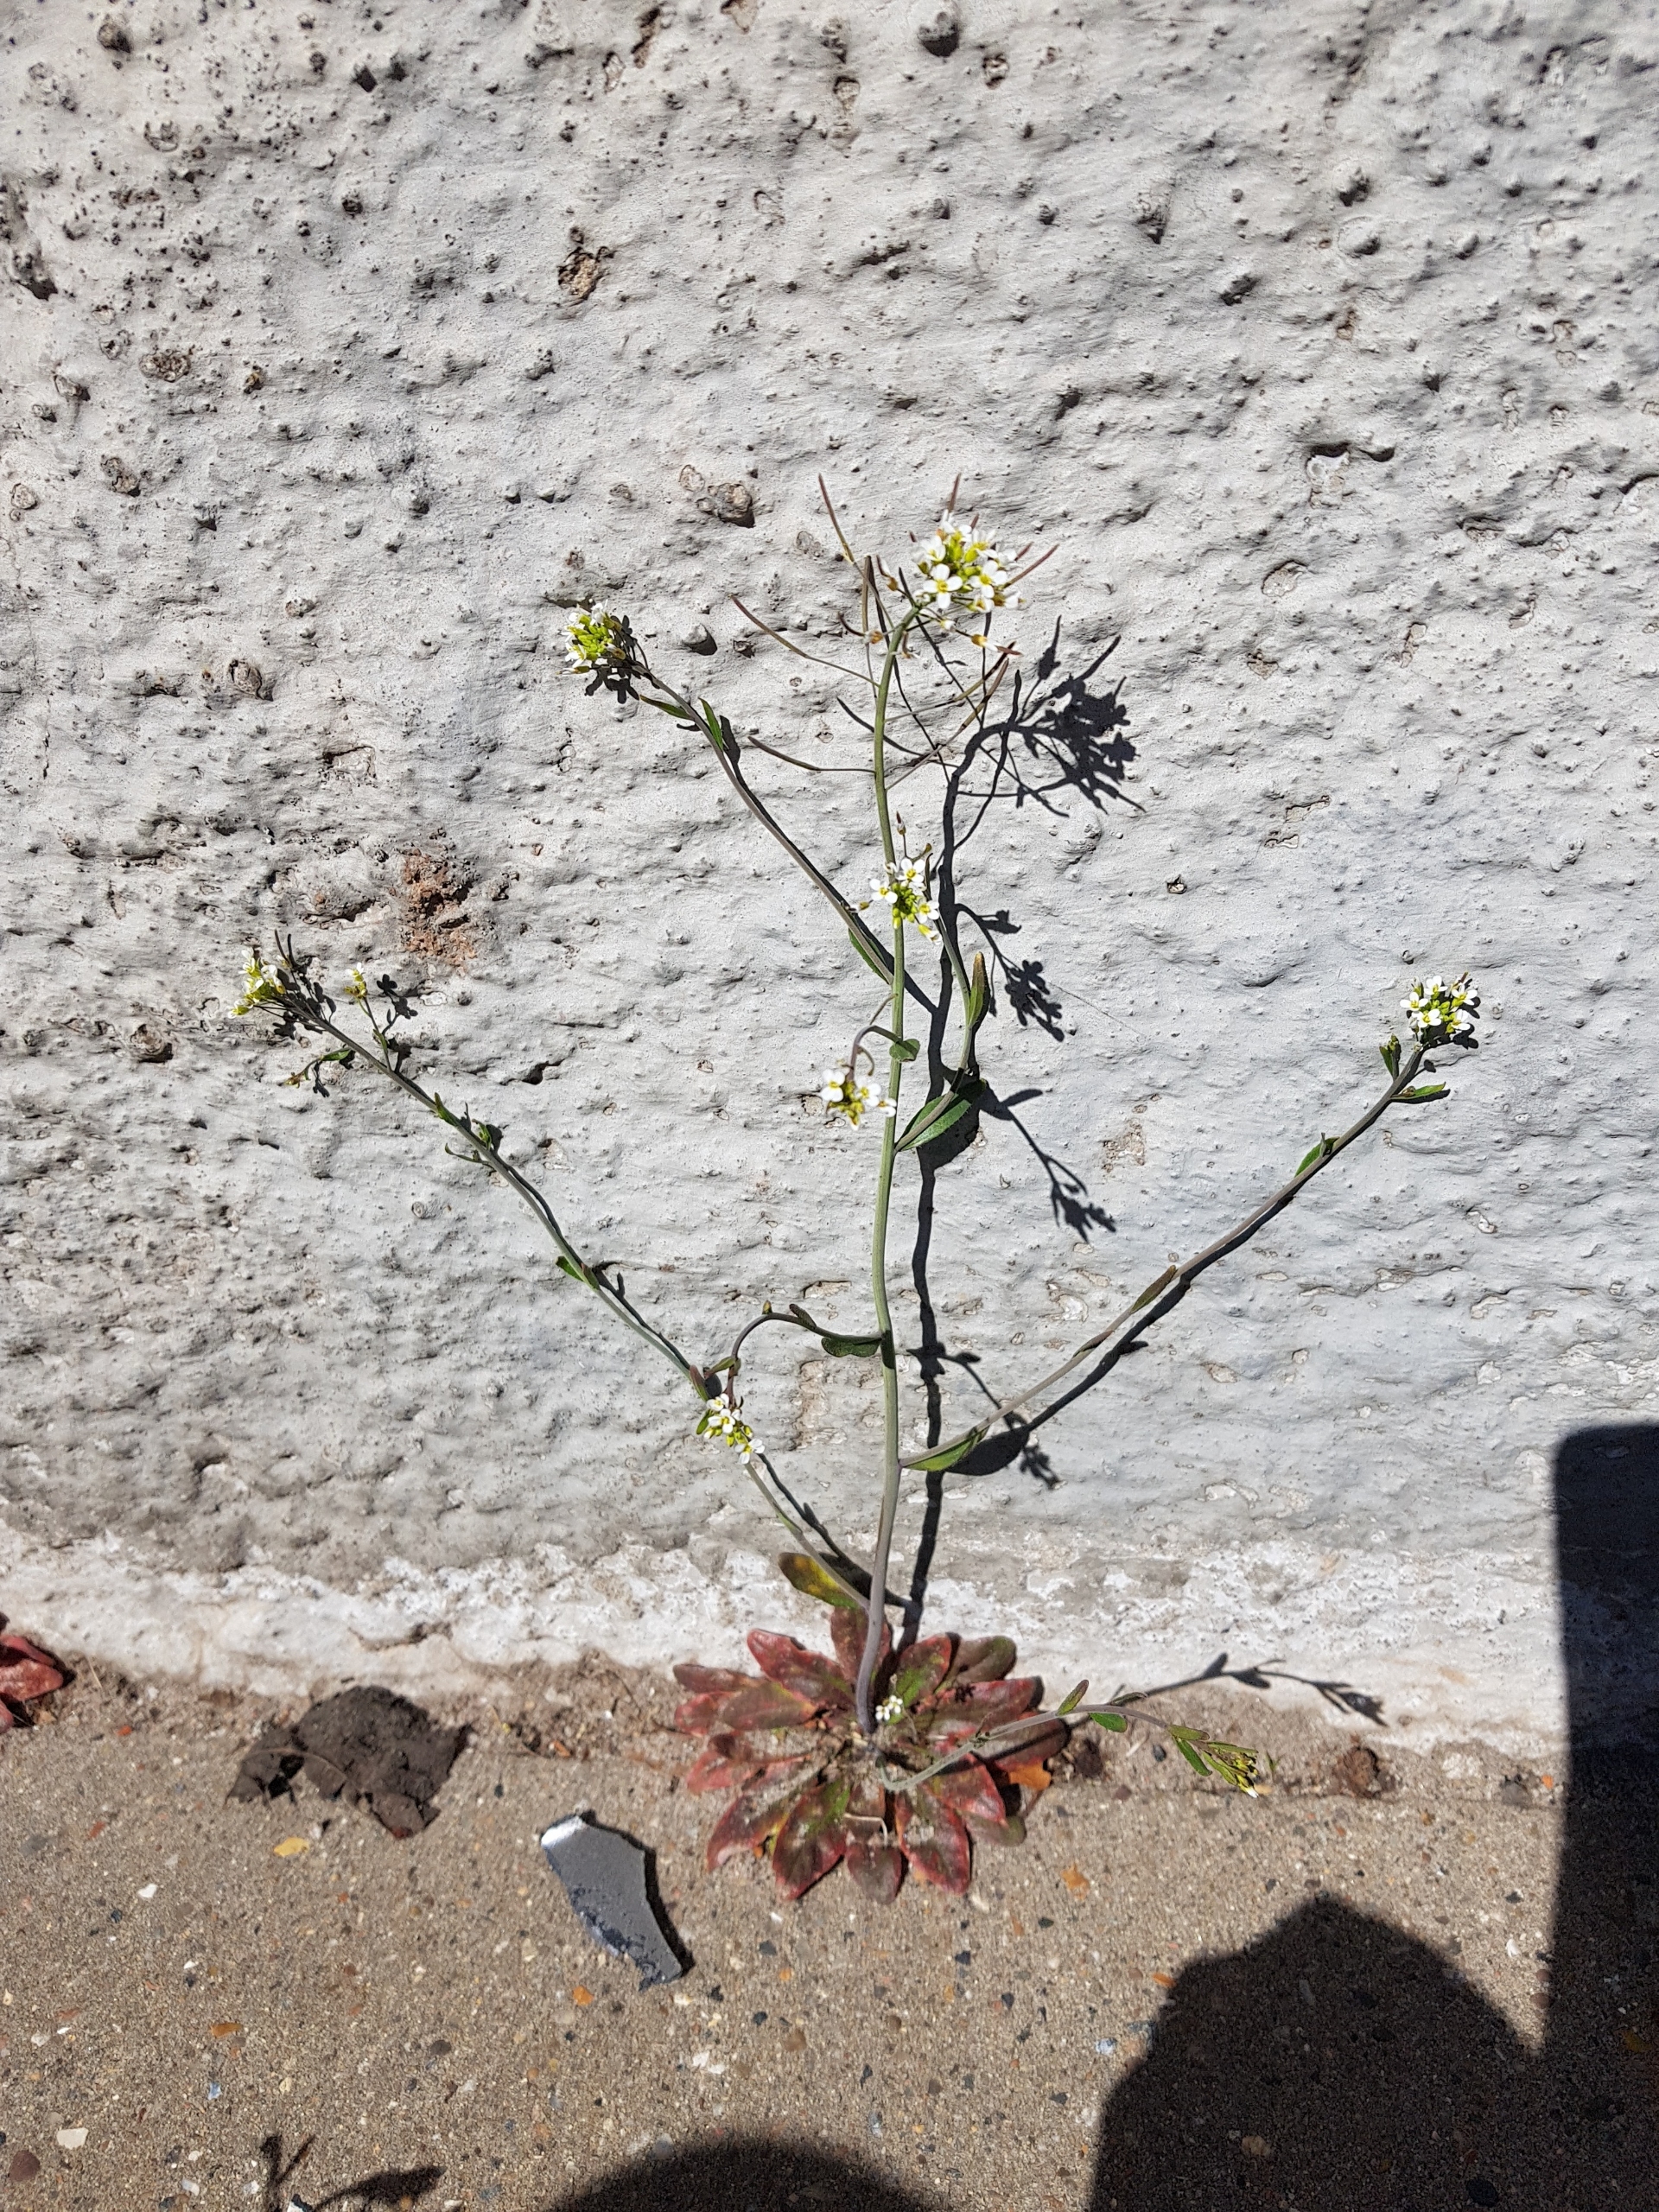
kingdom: Plantae
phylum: Tracheophyta
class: Magnoliopsida
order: Brassicales
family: Brassicaceae
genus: Arabidopsis
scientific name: Arabidopsis thaliana
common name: Almindelig gåsemad
